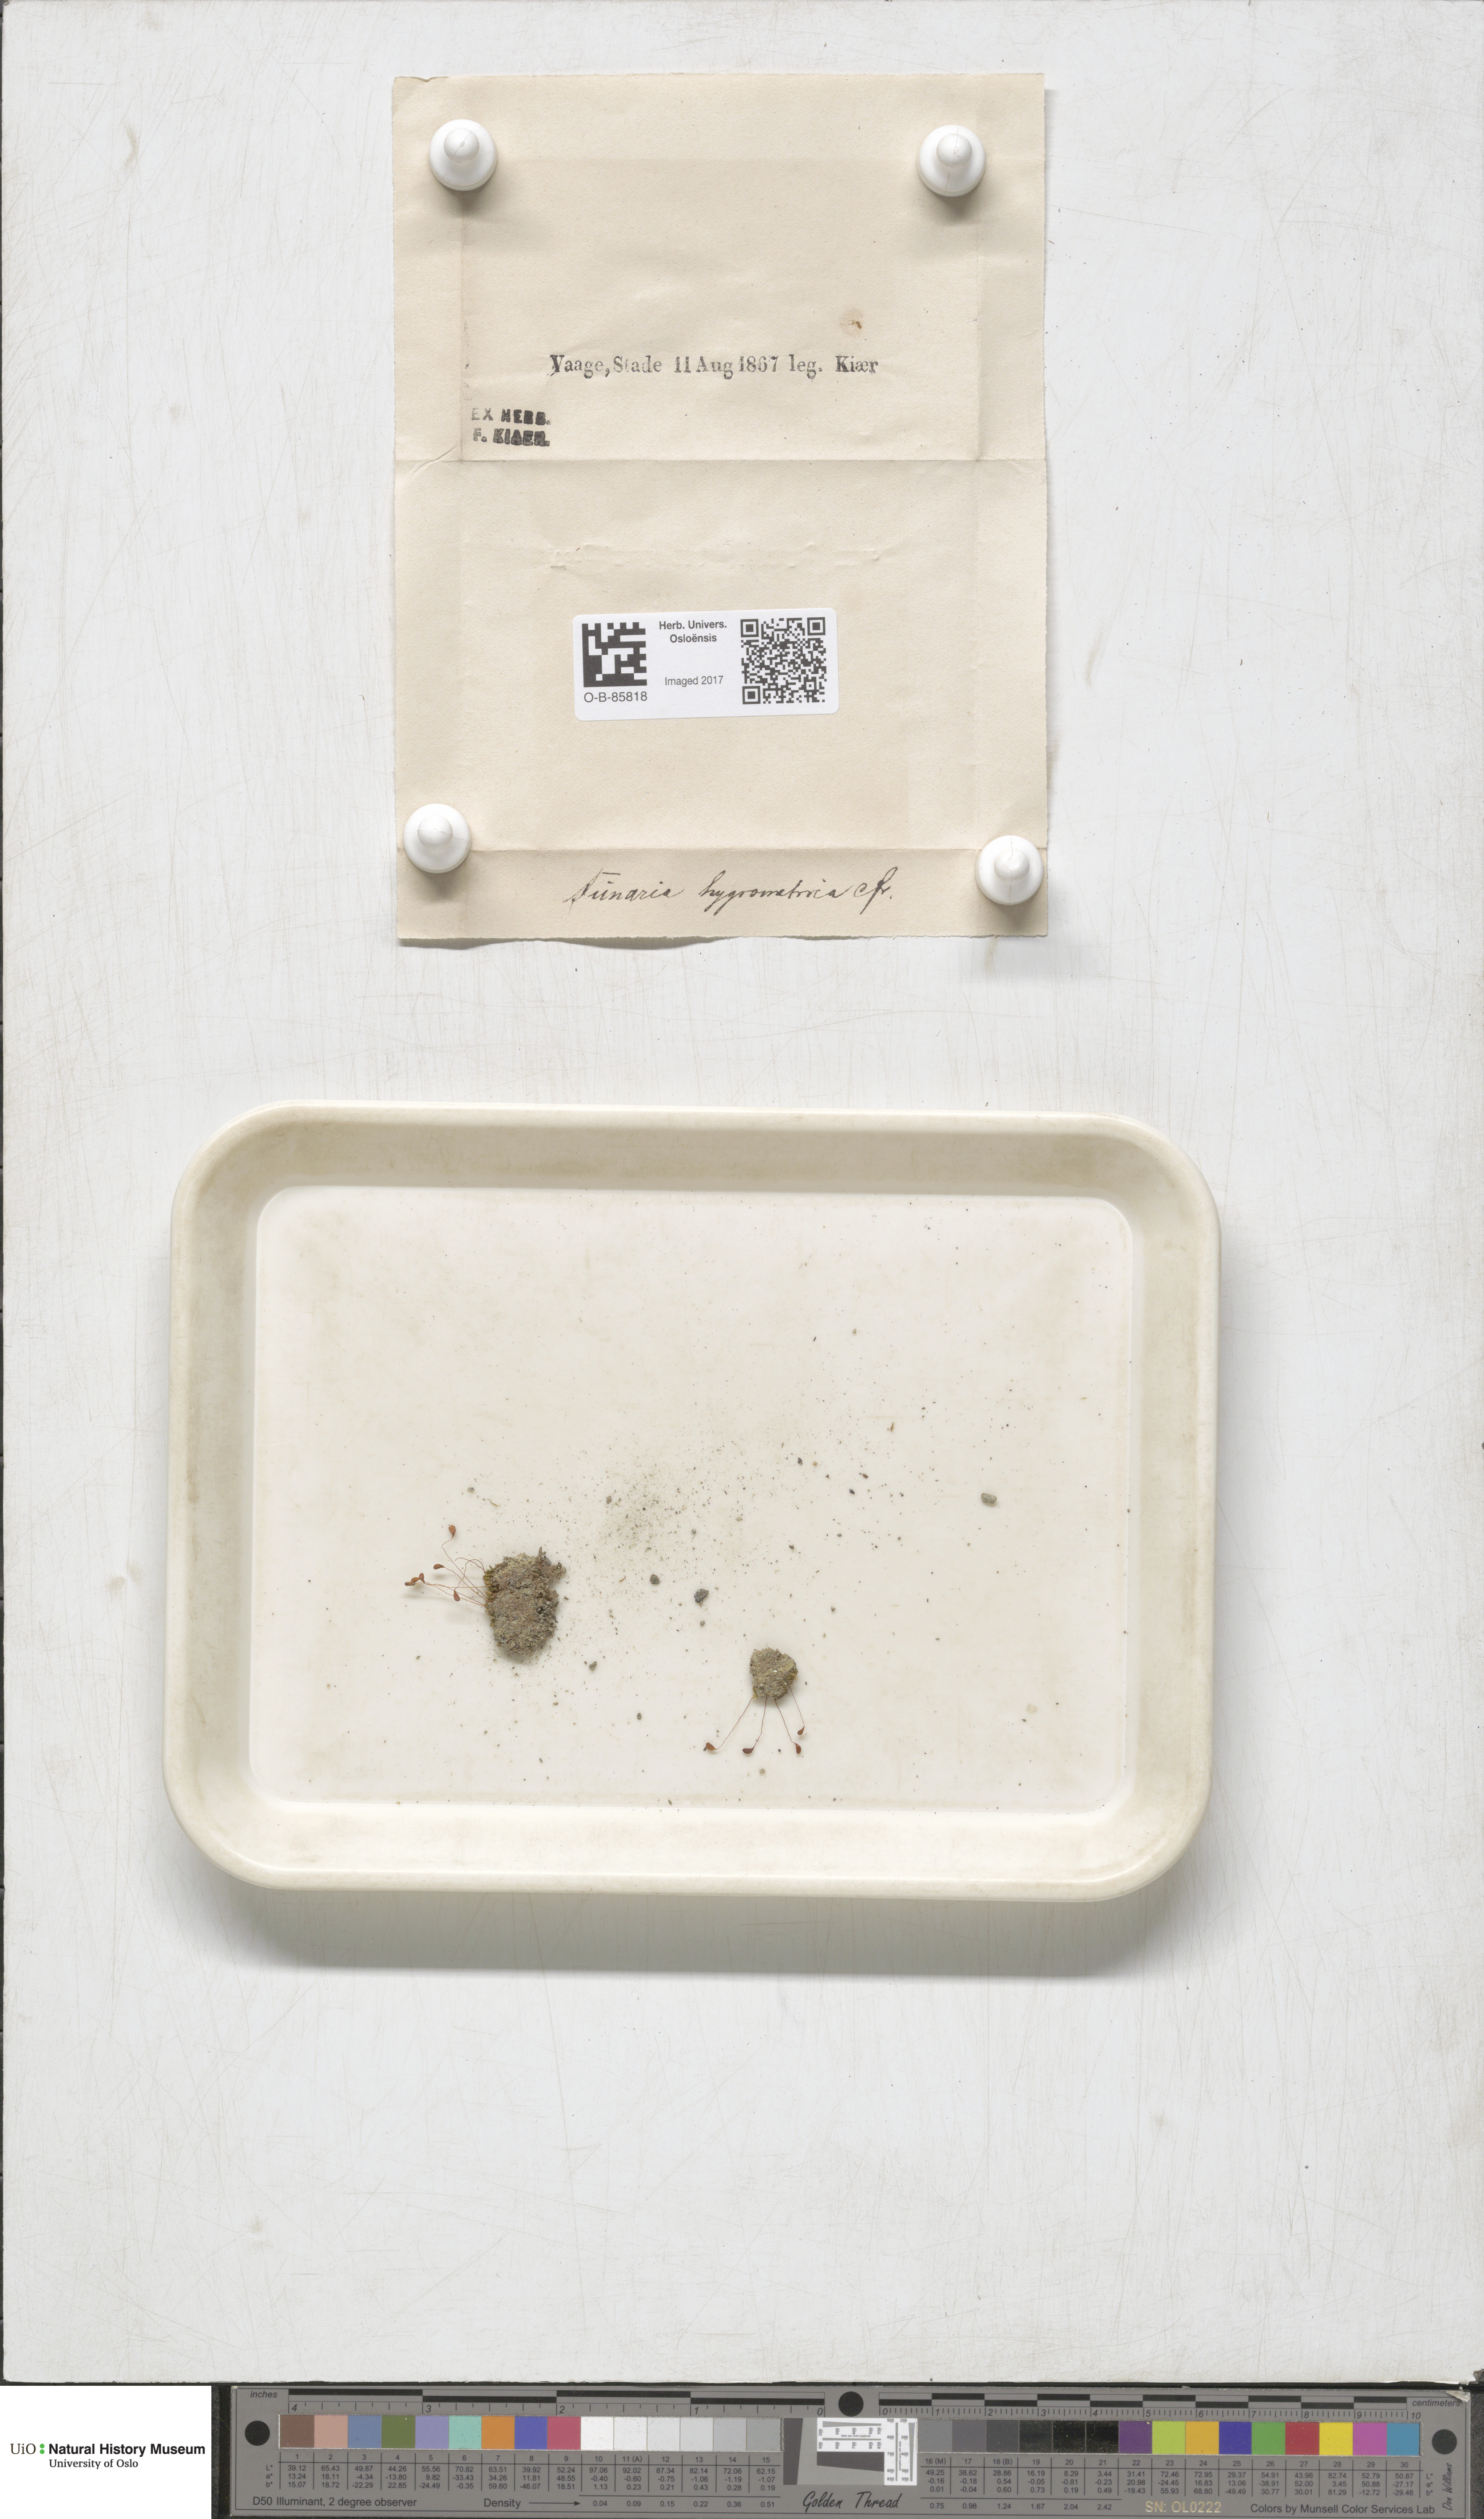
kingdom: Plantae
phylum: Bryophyta
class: Bryopsida
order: Funariales
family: Funariaceae
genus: Funaria
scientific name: Funaria hygrometrica
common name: Common cord moss
